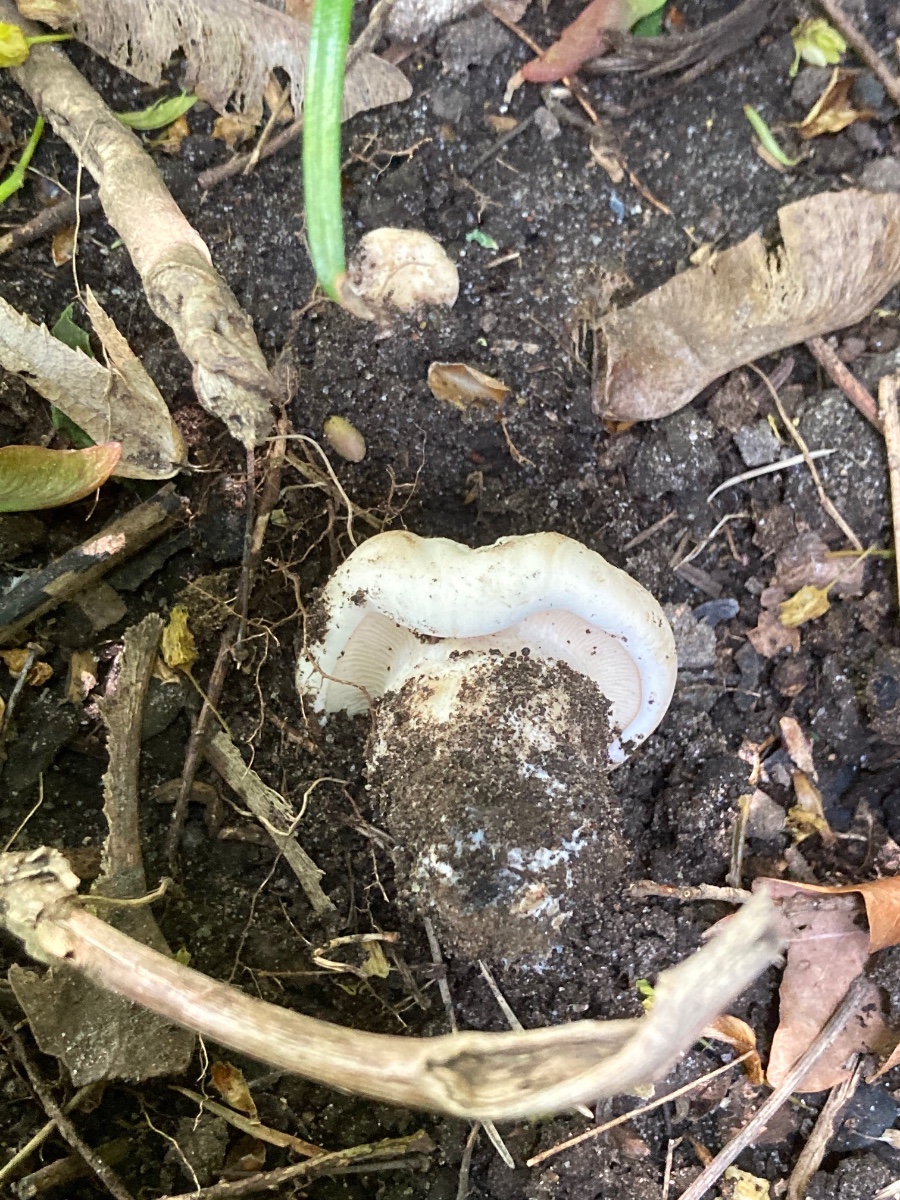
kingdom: Fungi
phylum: Basidiomycota
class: Agaricomycetes
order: Agaricales
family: Lyophyllaceae
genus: Calocybe
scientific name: Calocybe gambosa
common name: vårmusseron
